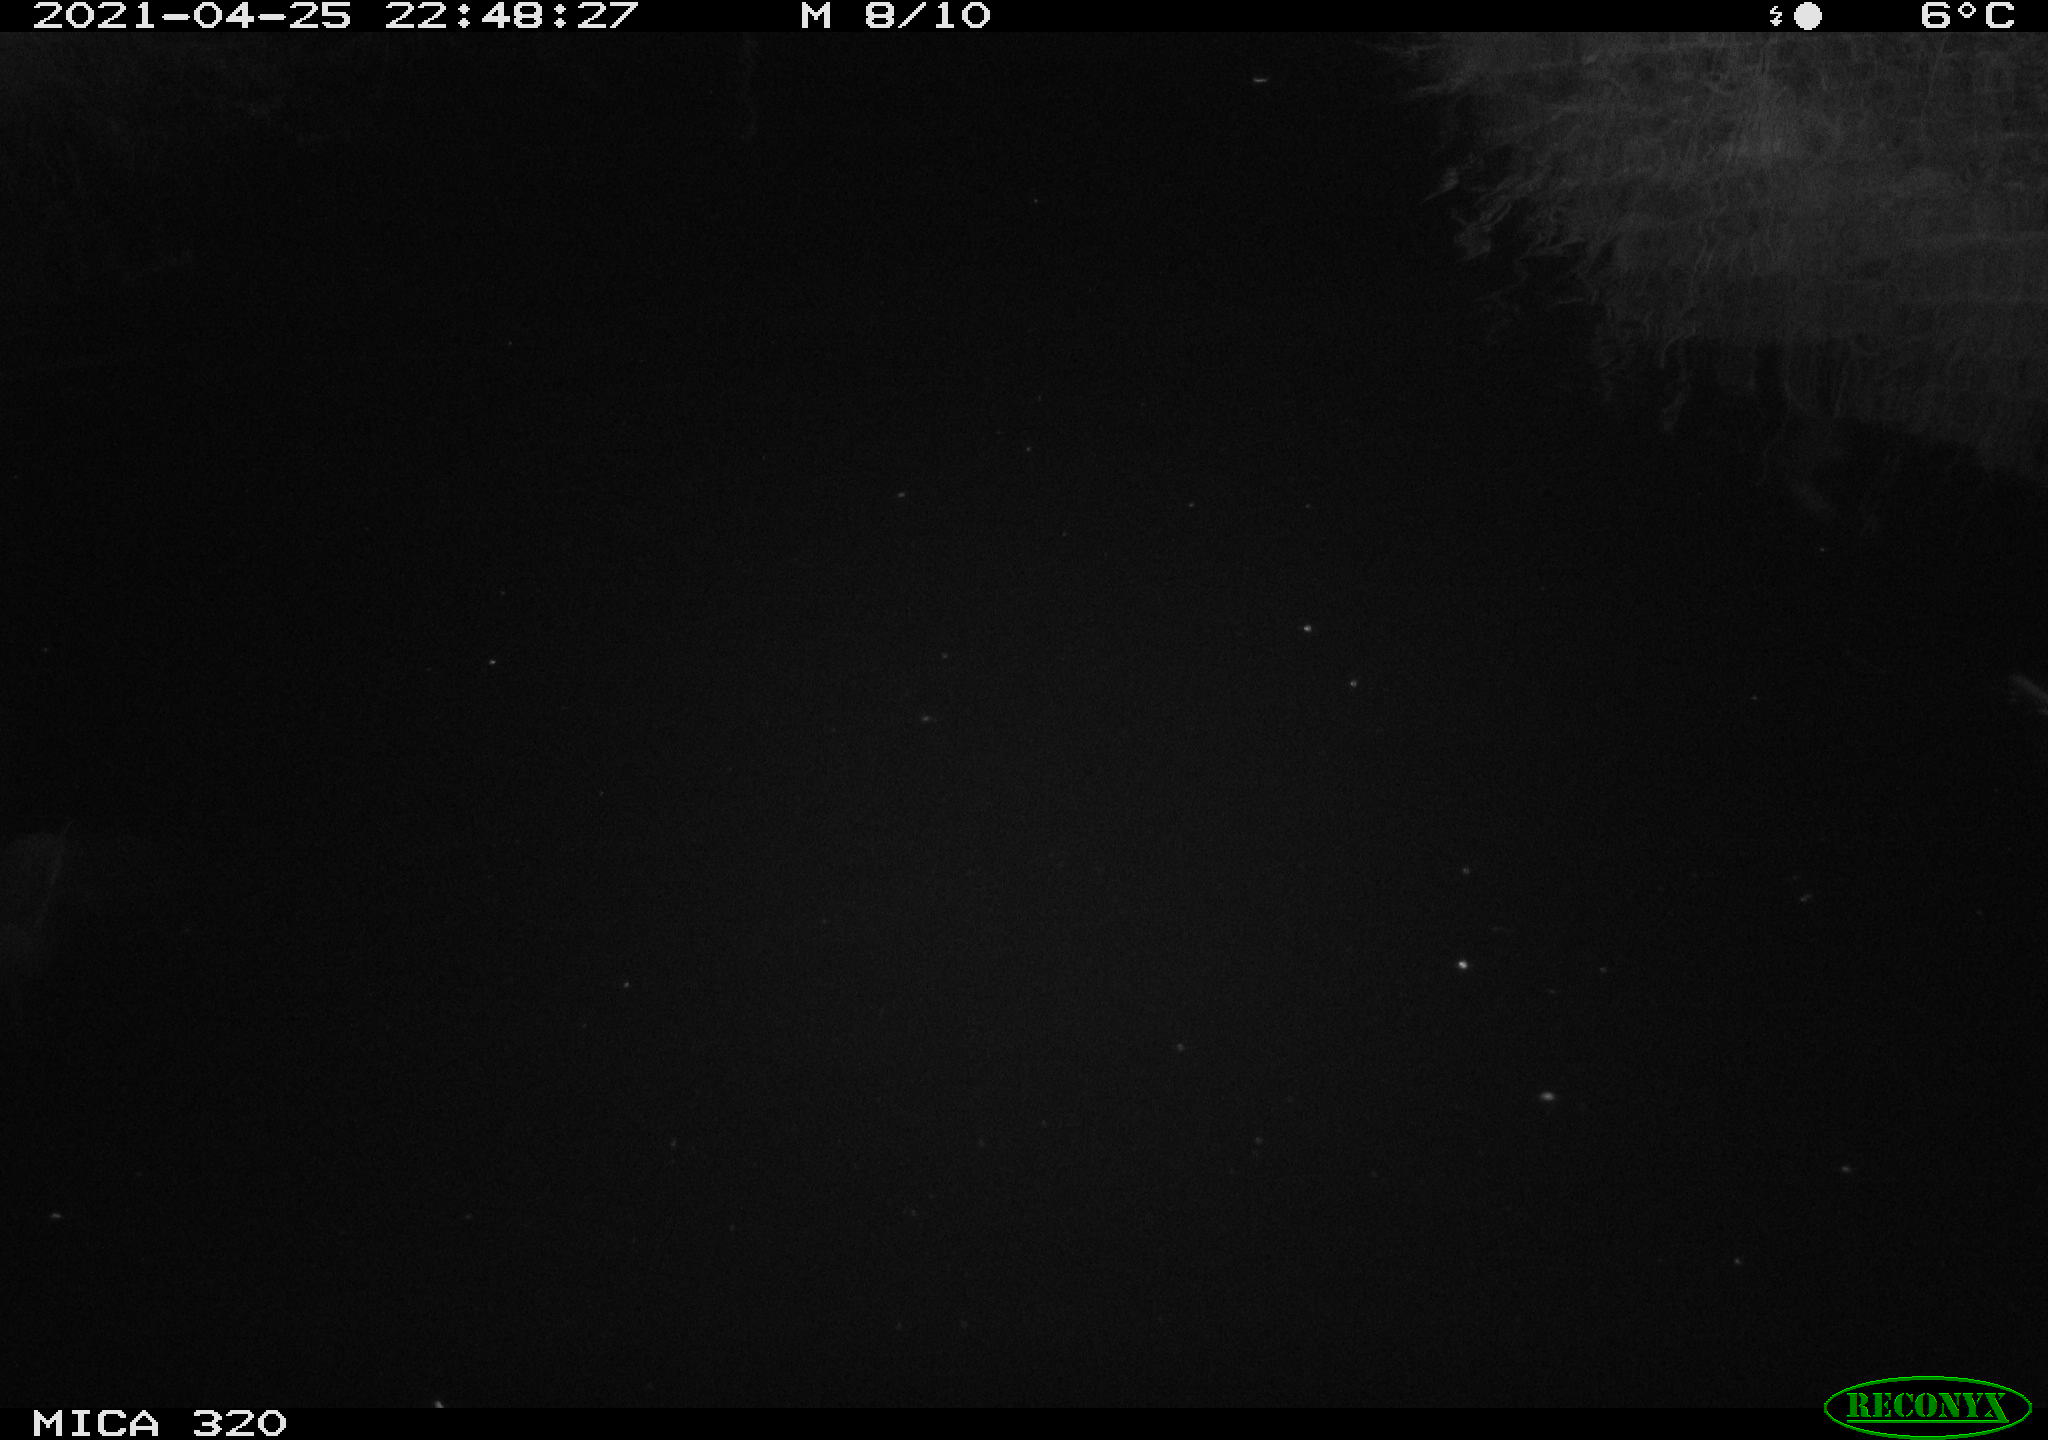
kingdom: Animalia
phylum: Chordata
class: Mammalia
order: Rodentia
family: Muridae
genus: Rattus
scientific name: Rattus norvegicus
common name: Brown rat
